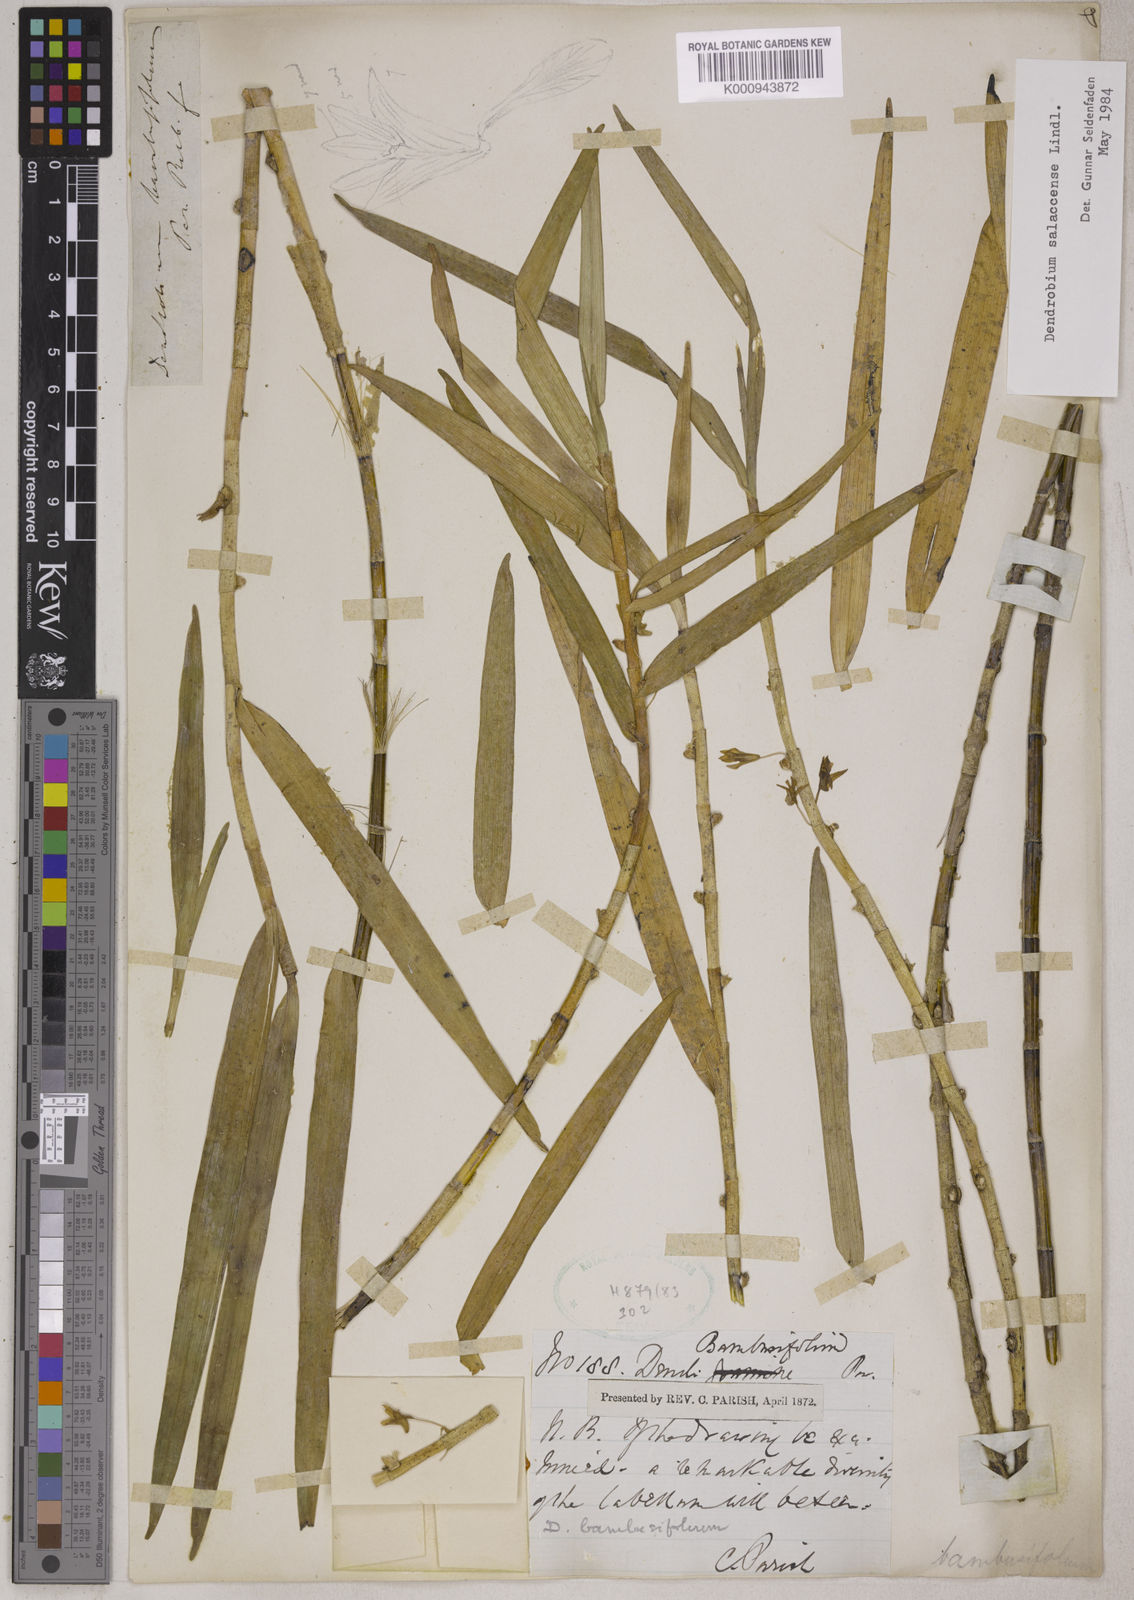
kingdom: Plantae
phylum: Tracheophyta
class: Liliopsida
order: Asparagales
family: Orchidaceae
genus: Dendrobium
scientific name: Dendrobium salaccense
